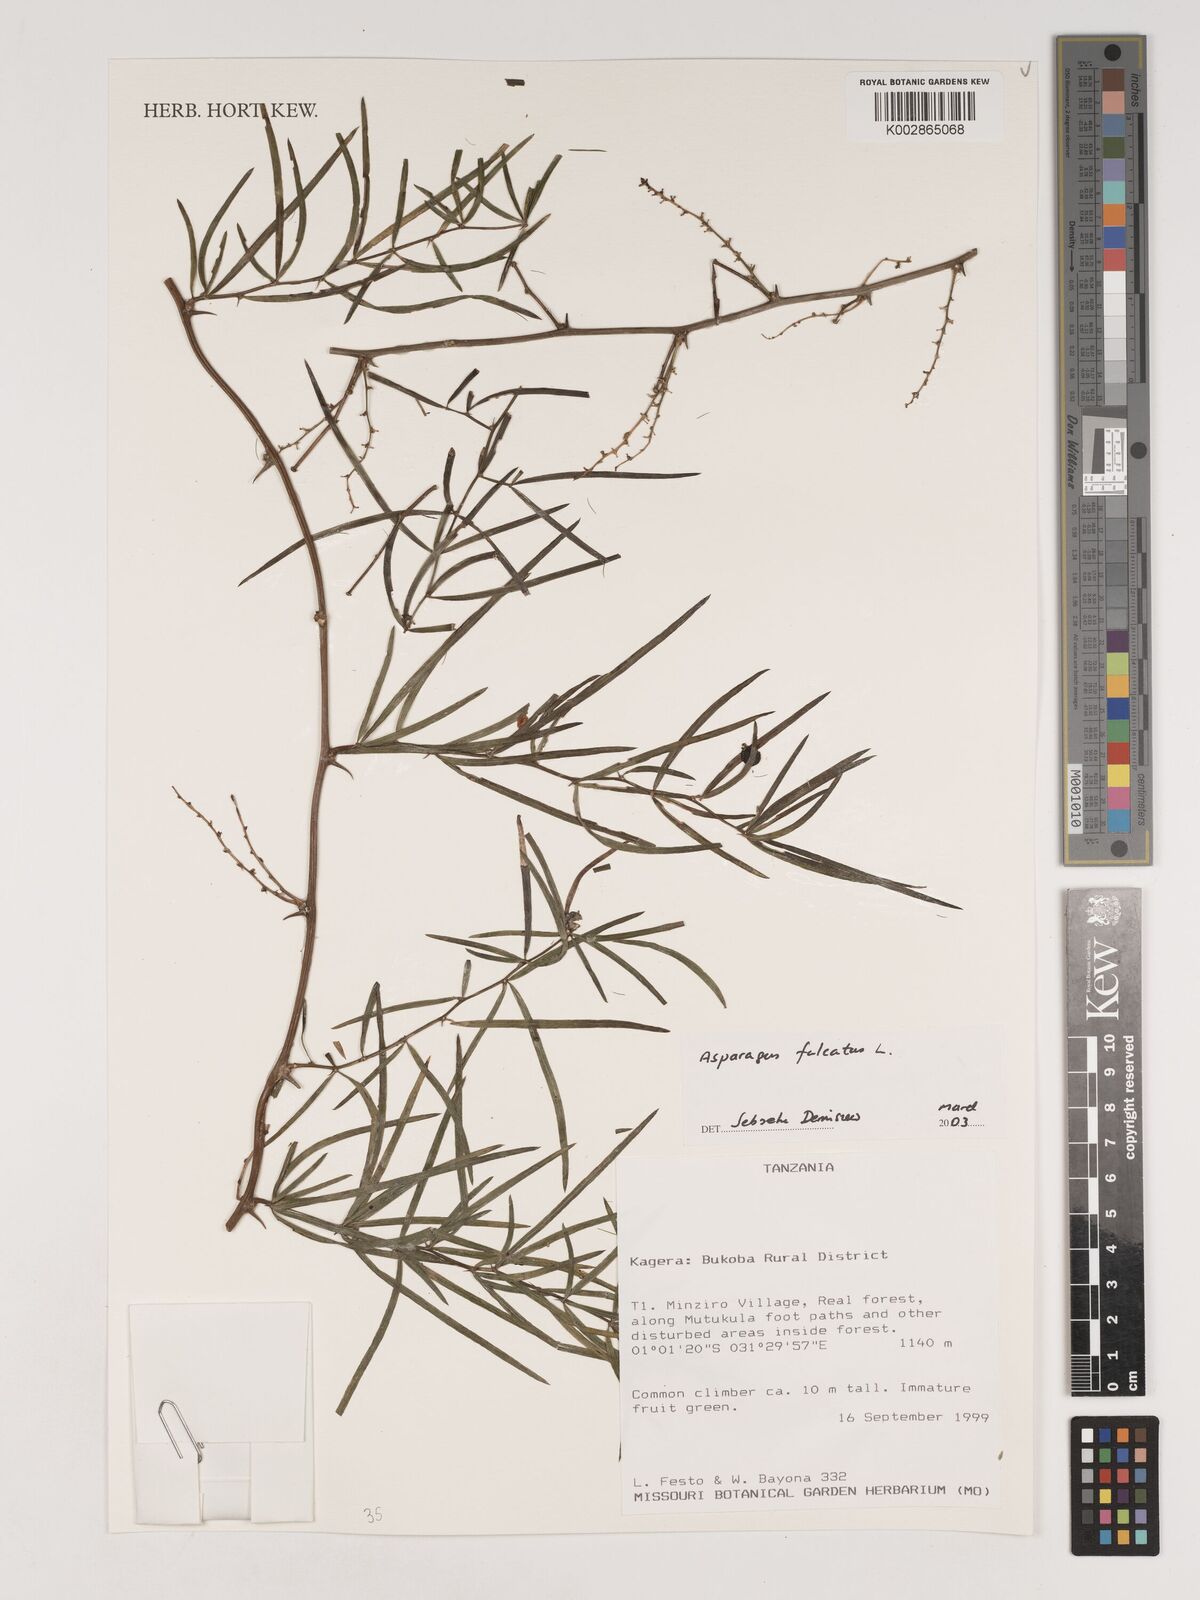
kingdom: Plantae
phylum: Tracheophyta
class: Liliopsida
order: Asparagales
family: Asparagaceae
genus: Asparagus
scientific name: Asparagus falcatus
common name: Asparagus
